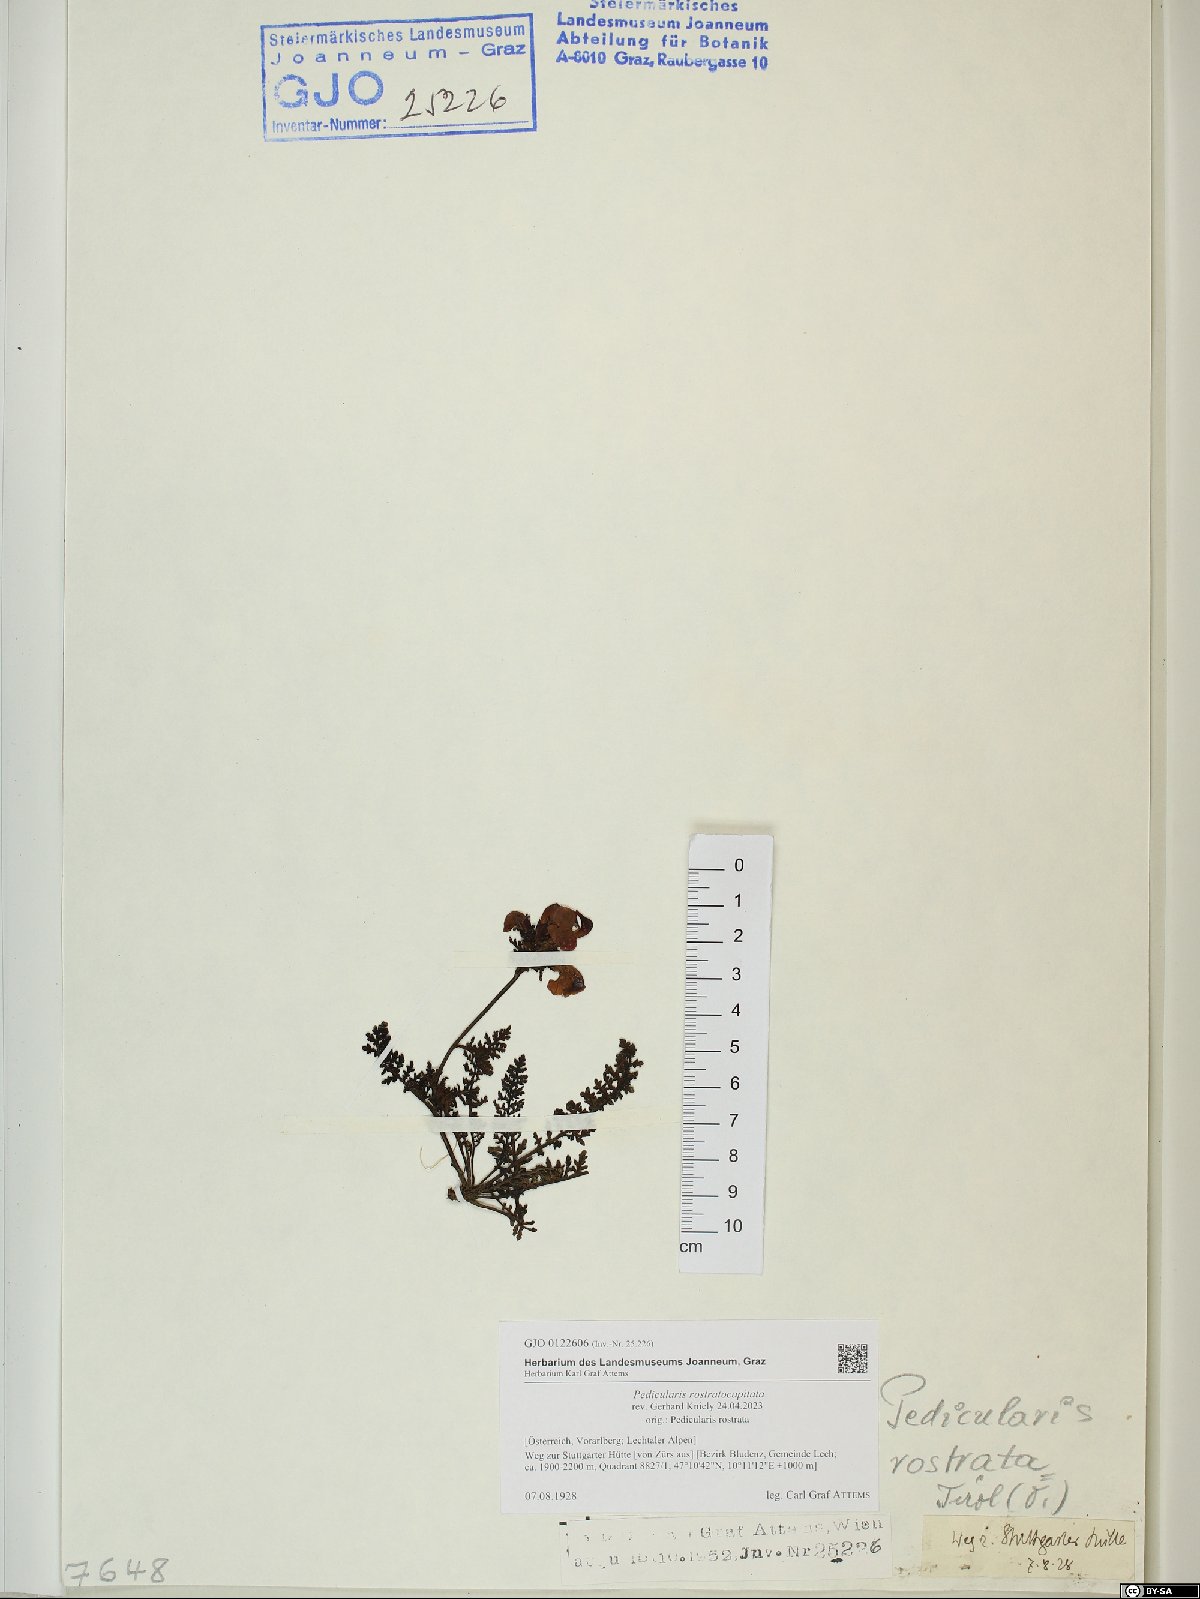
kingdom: Plantae
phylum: Tracheophyta
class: Magnoliopsida
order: Lamiales
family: Orobanchaceae
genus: Pedicularis
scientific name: Pedicularis rostratocapitata
